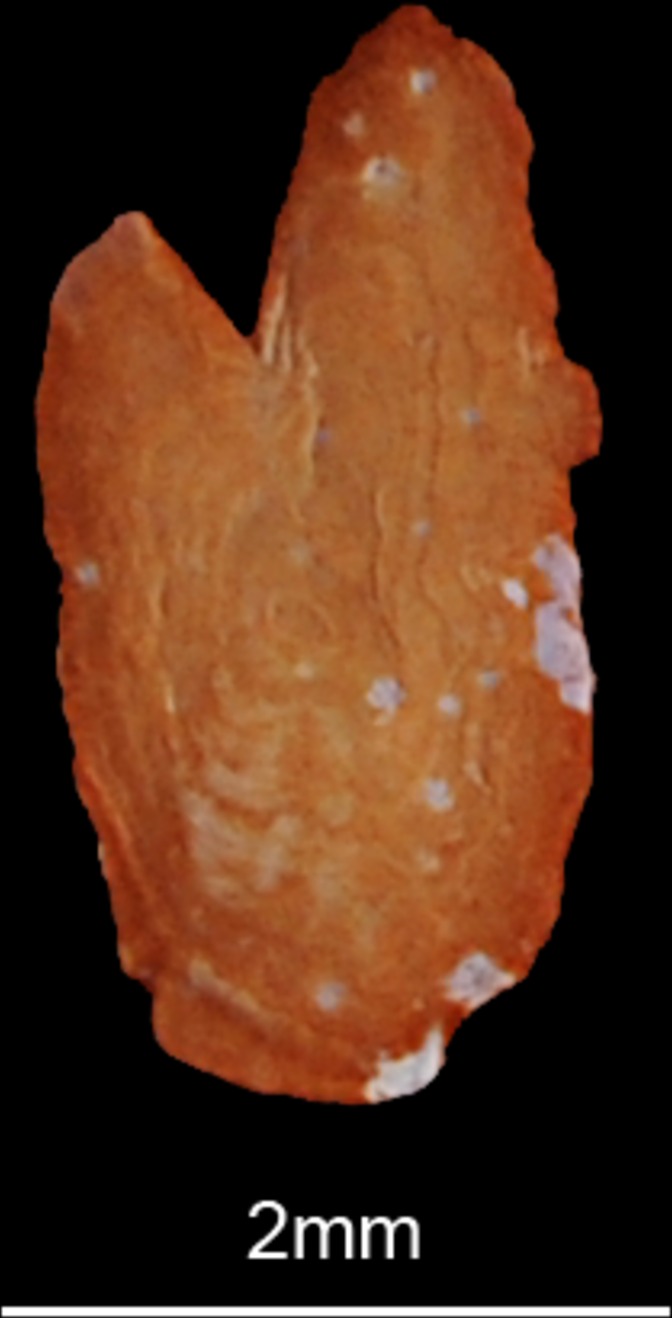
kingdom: Animalia
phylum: Chordata
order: Clupeiformes
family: Clupeidae
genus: Nematalosa
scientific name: Nematalosa nasus
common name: Bloch's gizzard shad
